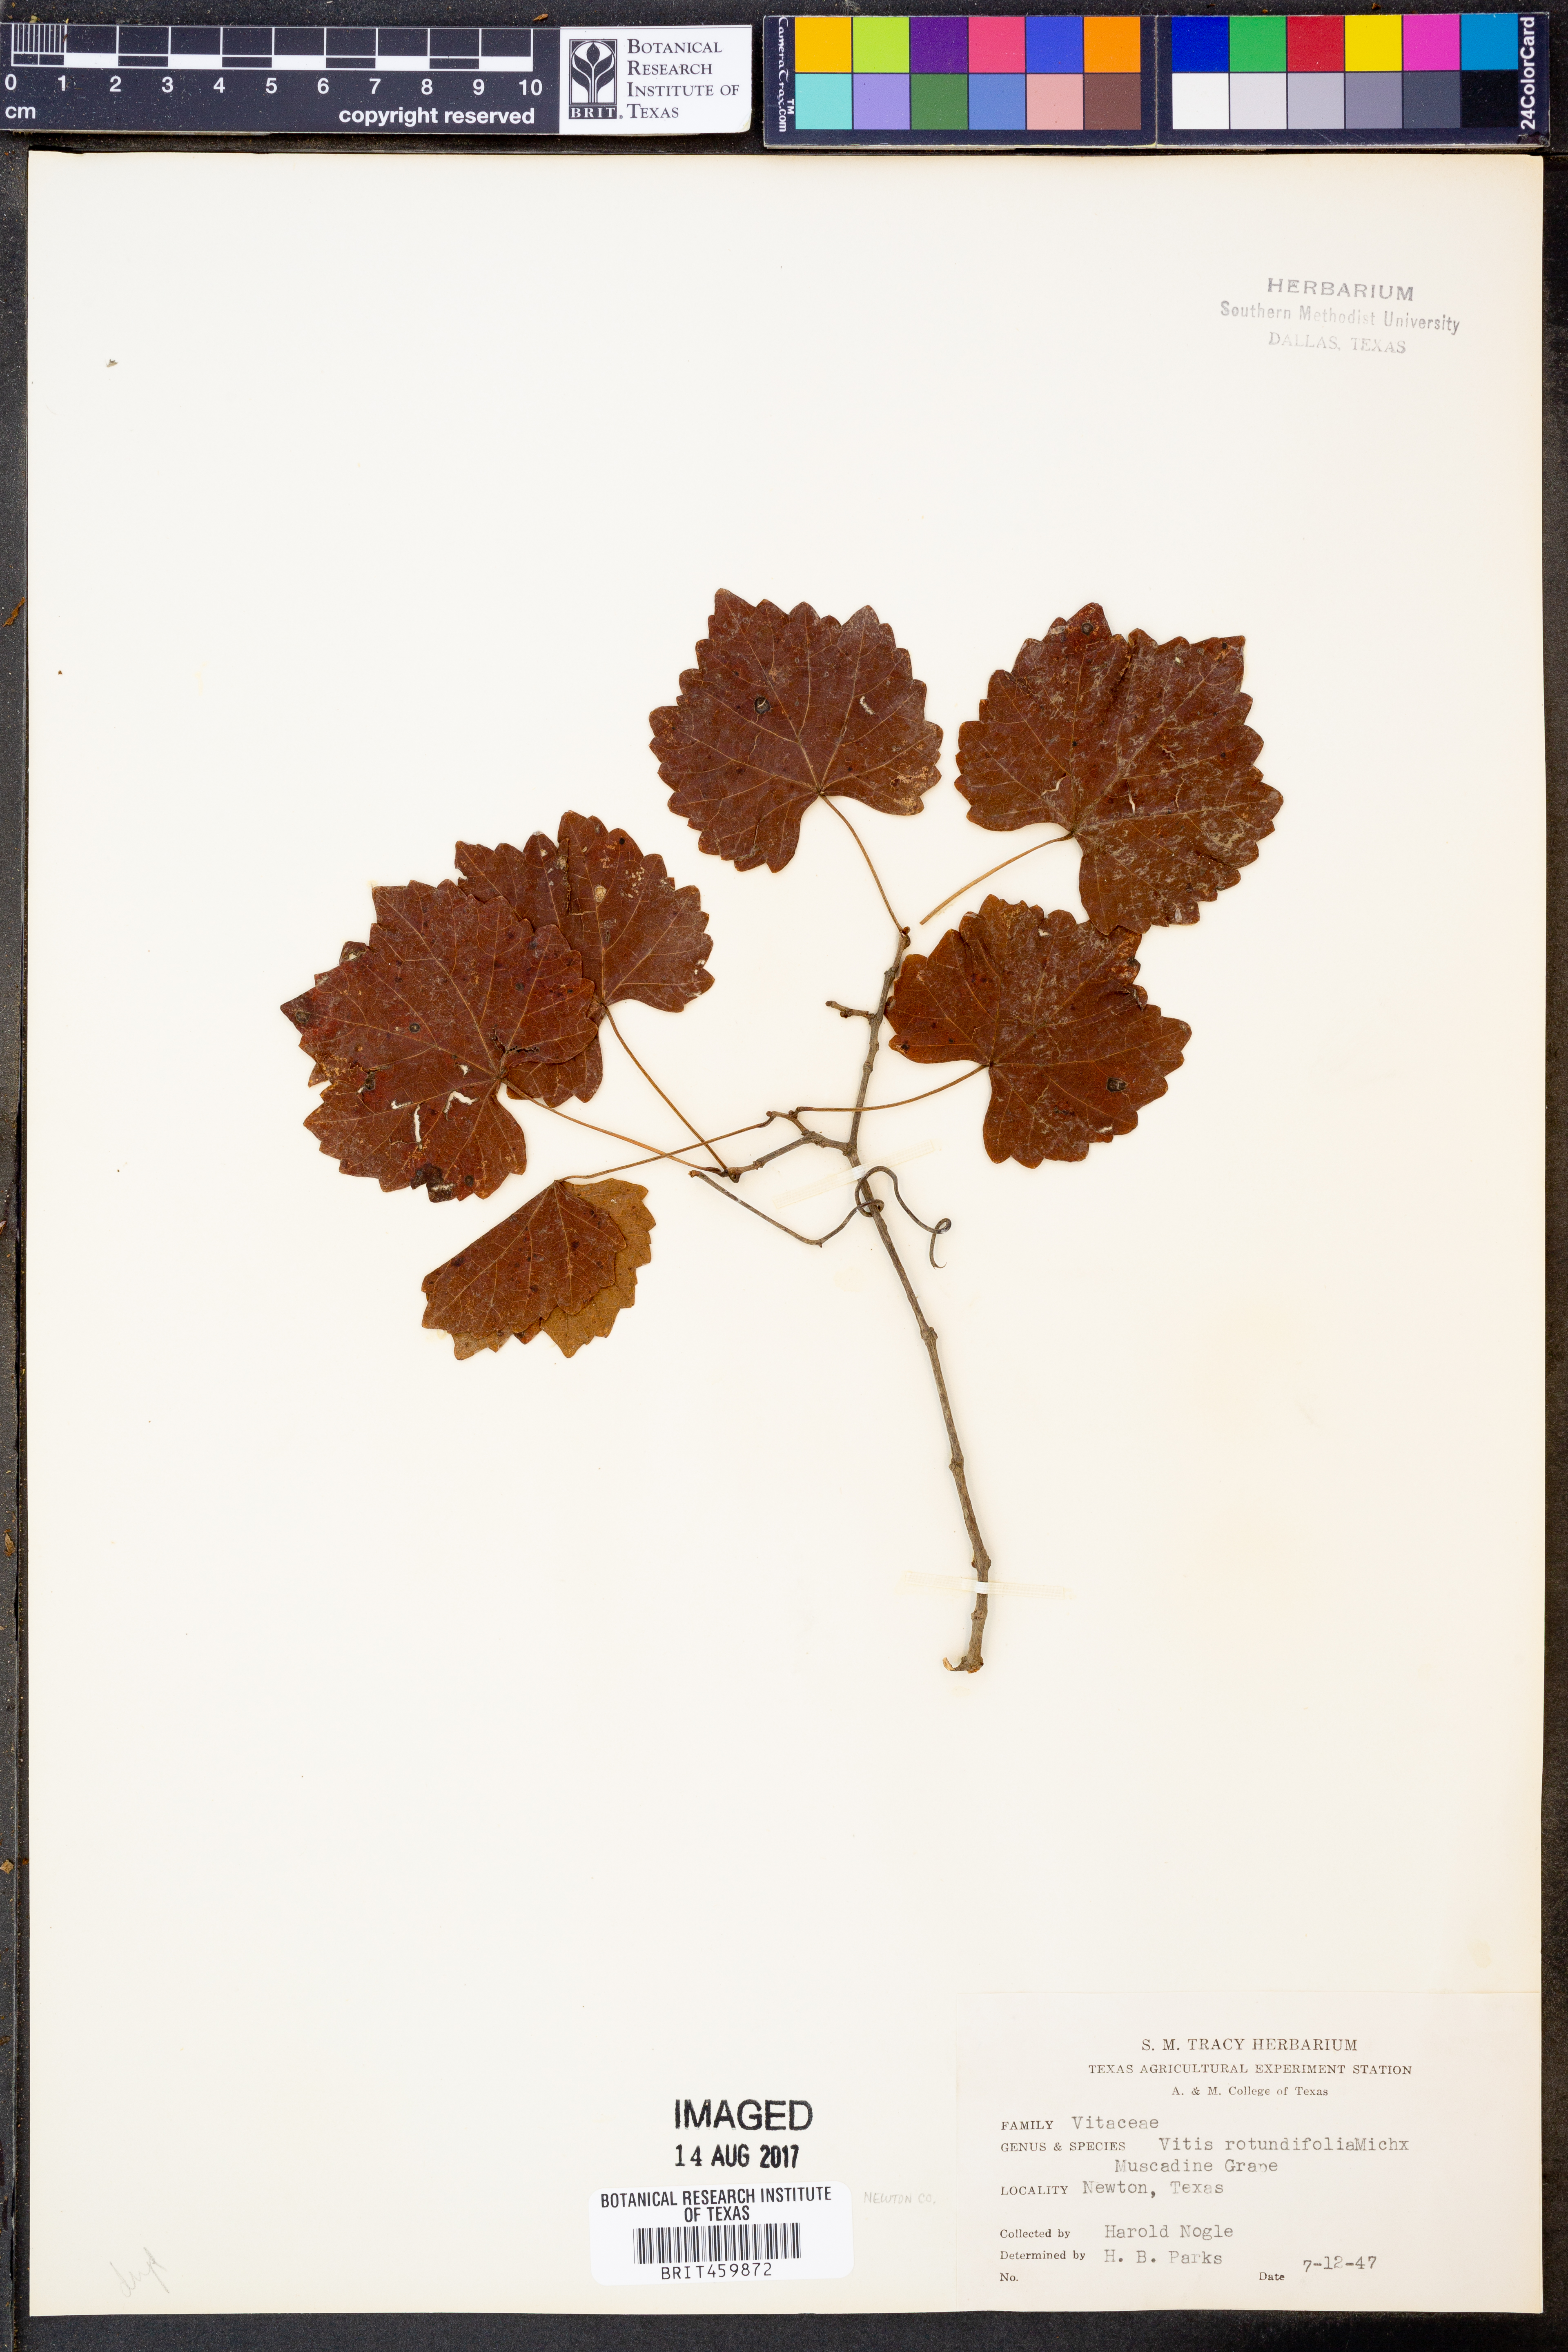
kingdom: Plantae
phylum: Tracheophyta
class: Magnoliopsida
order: Vitales
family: Vitaceae
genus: Vitis
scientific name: Vitis rotundifolia
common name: Muscadine grape
